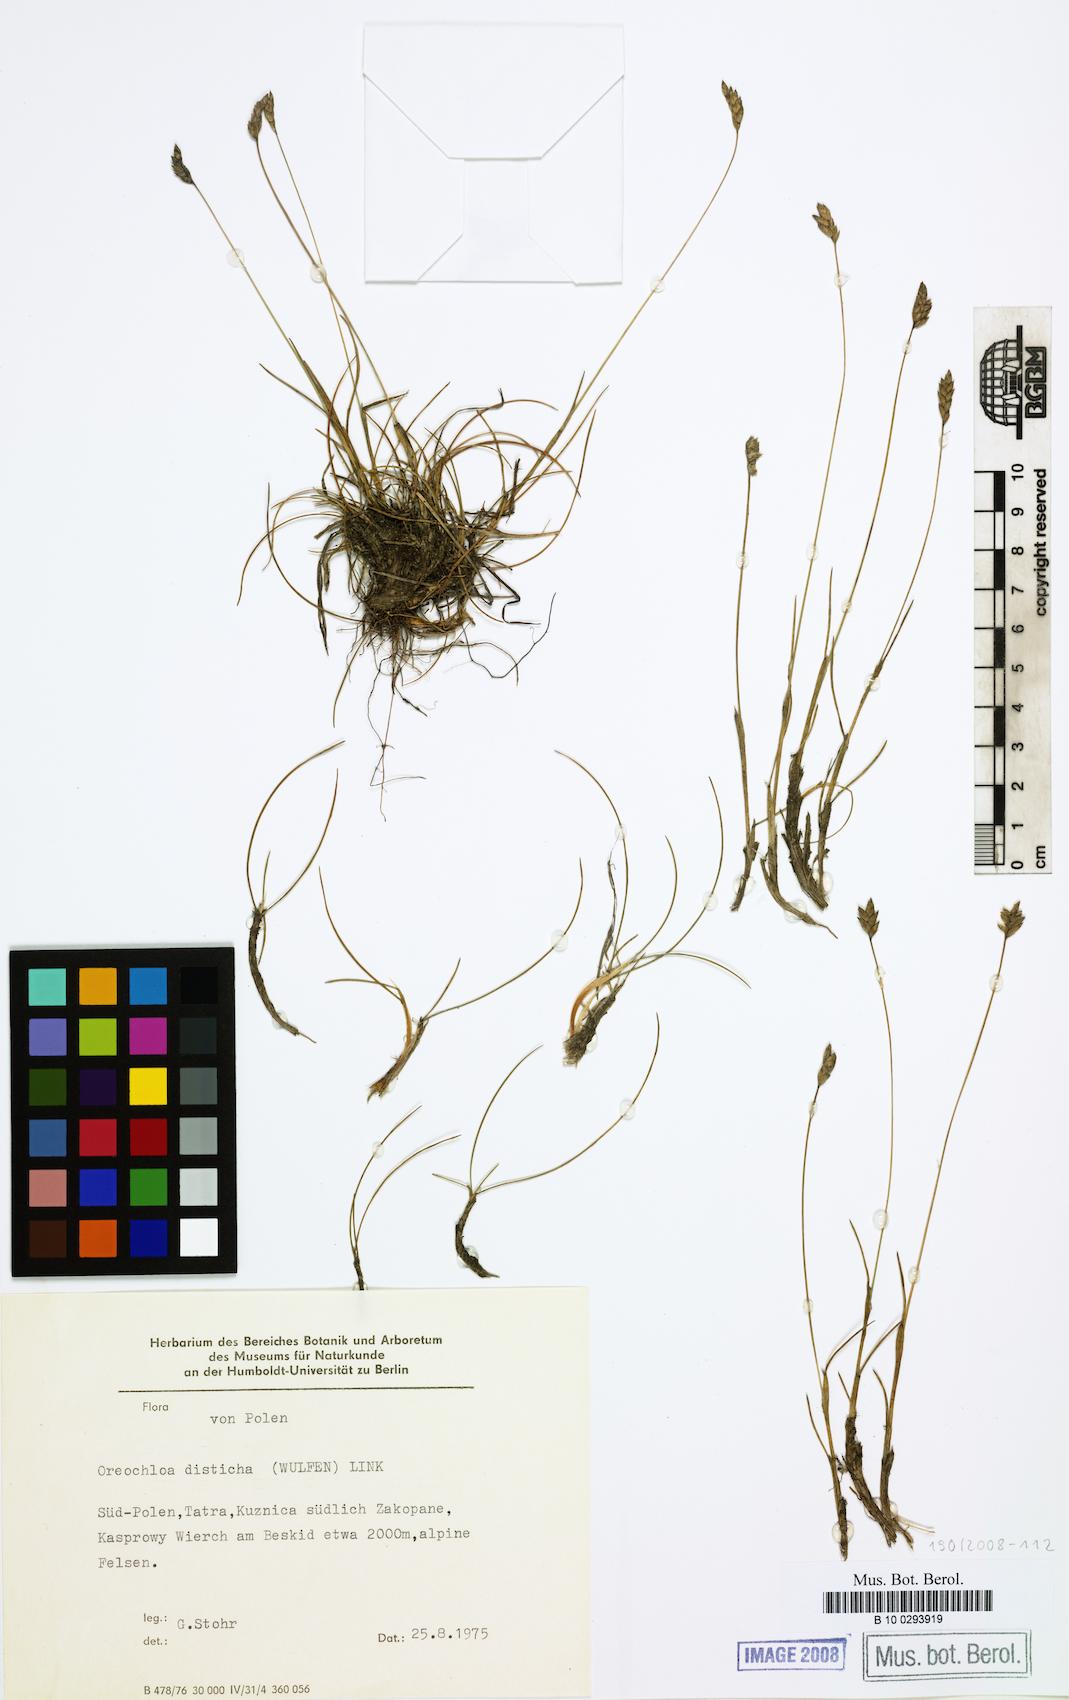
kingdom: Plantae
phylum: Tracheophyta
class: Liliopsida
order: Poales
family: Poaceae
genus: Oreochloa
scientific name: Oreochloa disticha
